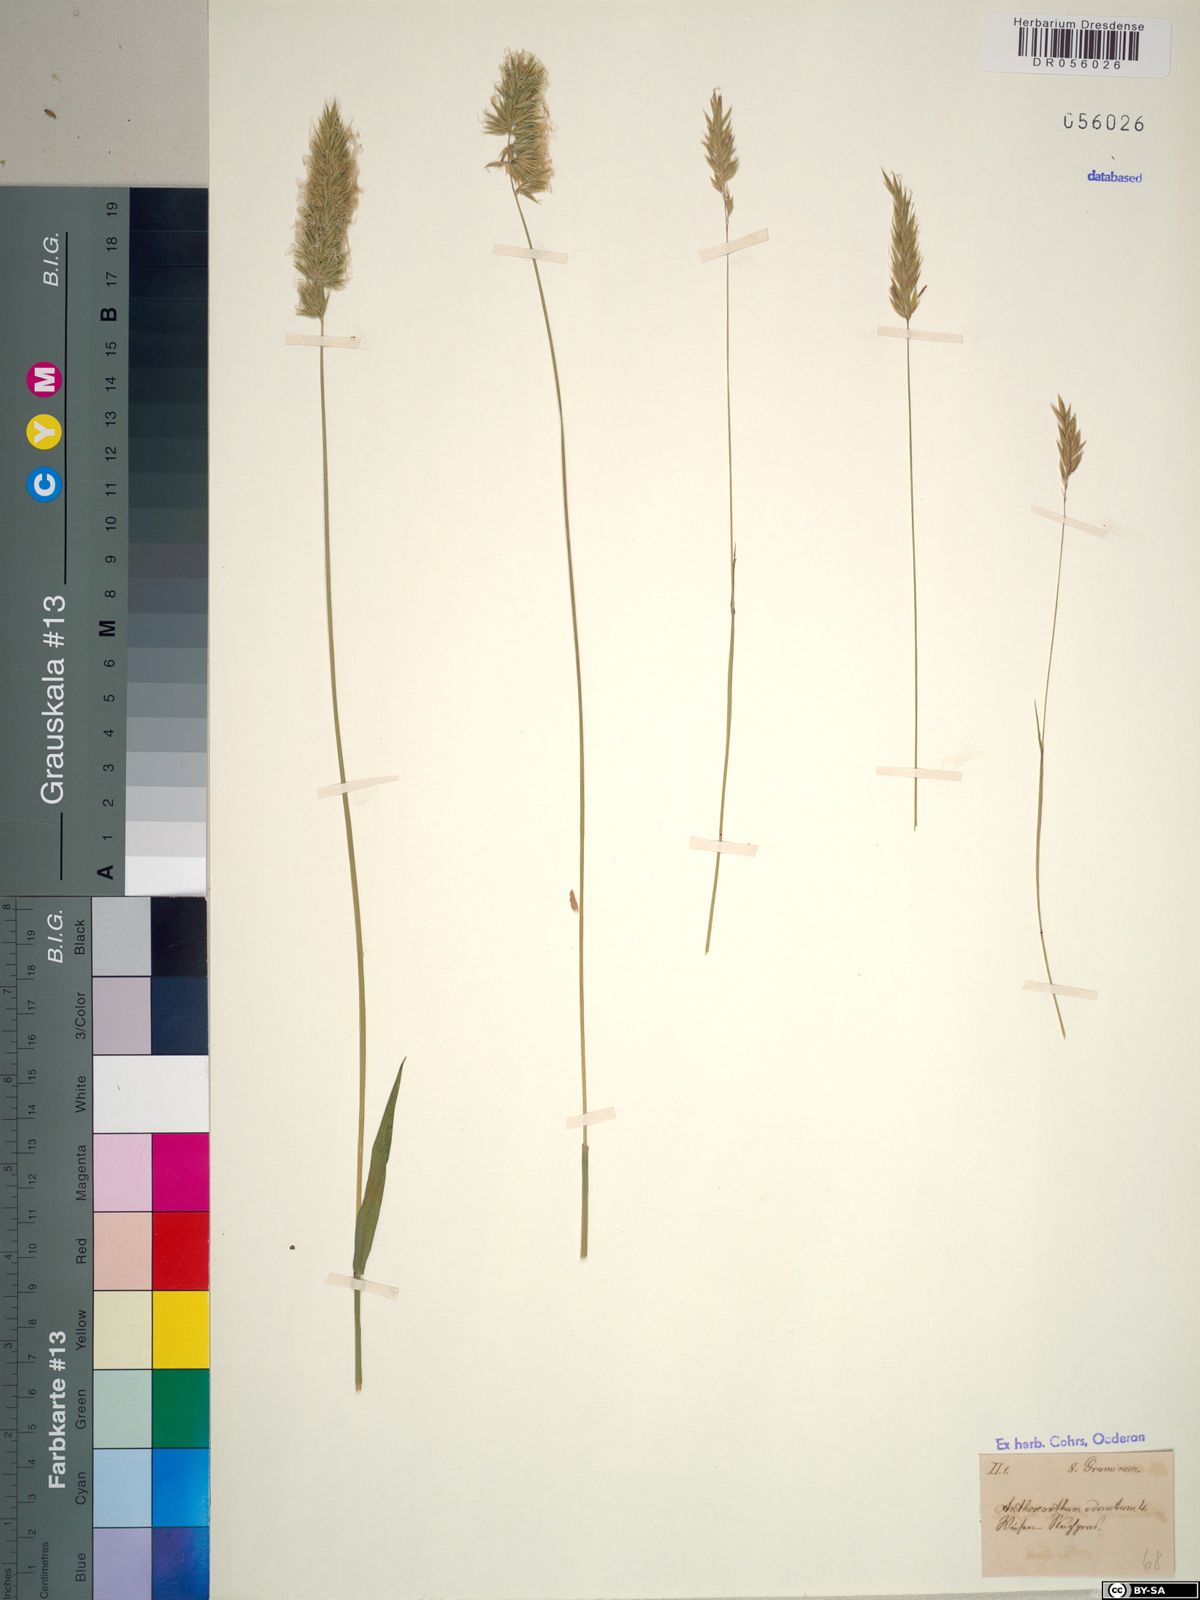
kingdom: Plantae
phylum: Tracheophyta
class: Liliopsida
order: Poales
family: Poaceae
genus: Anthoxanthum
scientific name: Anthoxanthum odoratum
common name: Sweet vernalgrass
